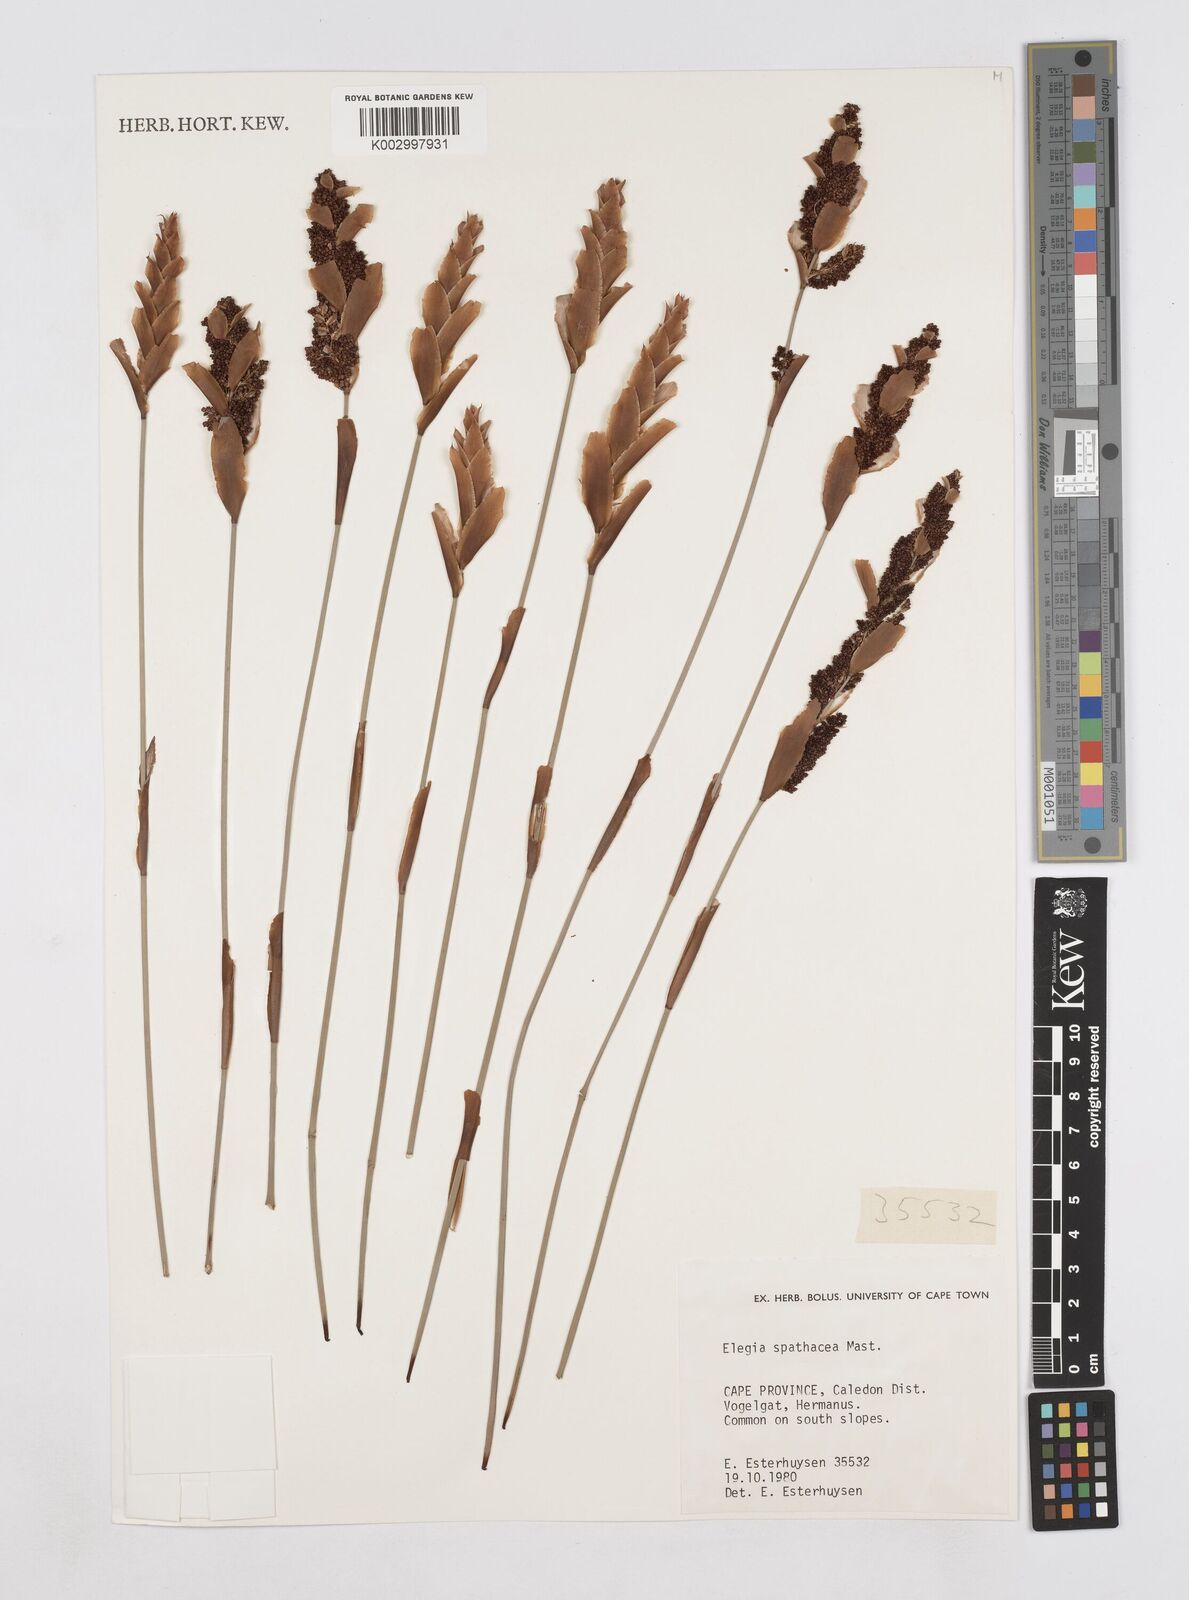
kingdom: Plantae
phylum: Tracheophyta
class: Liliopsida
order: Poales
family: Restionaceae
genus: Elegia
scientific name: Elegia spathacea
